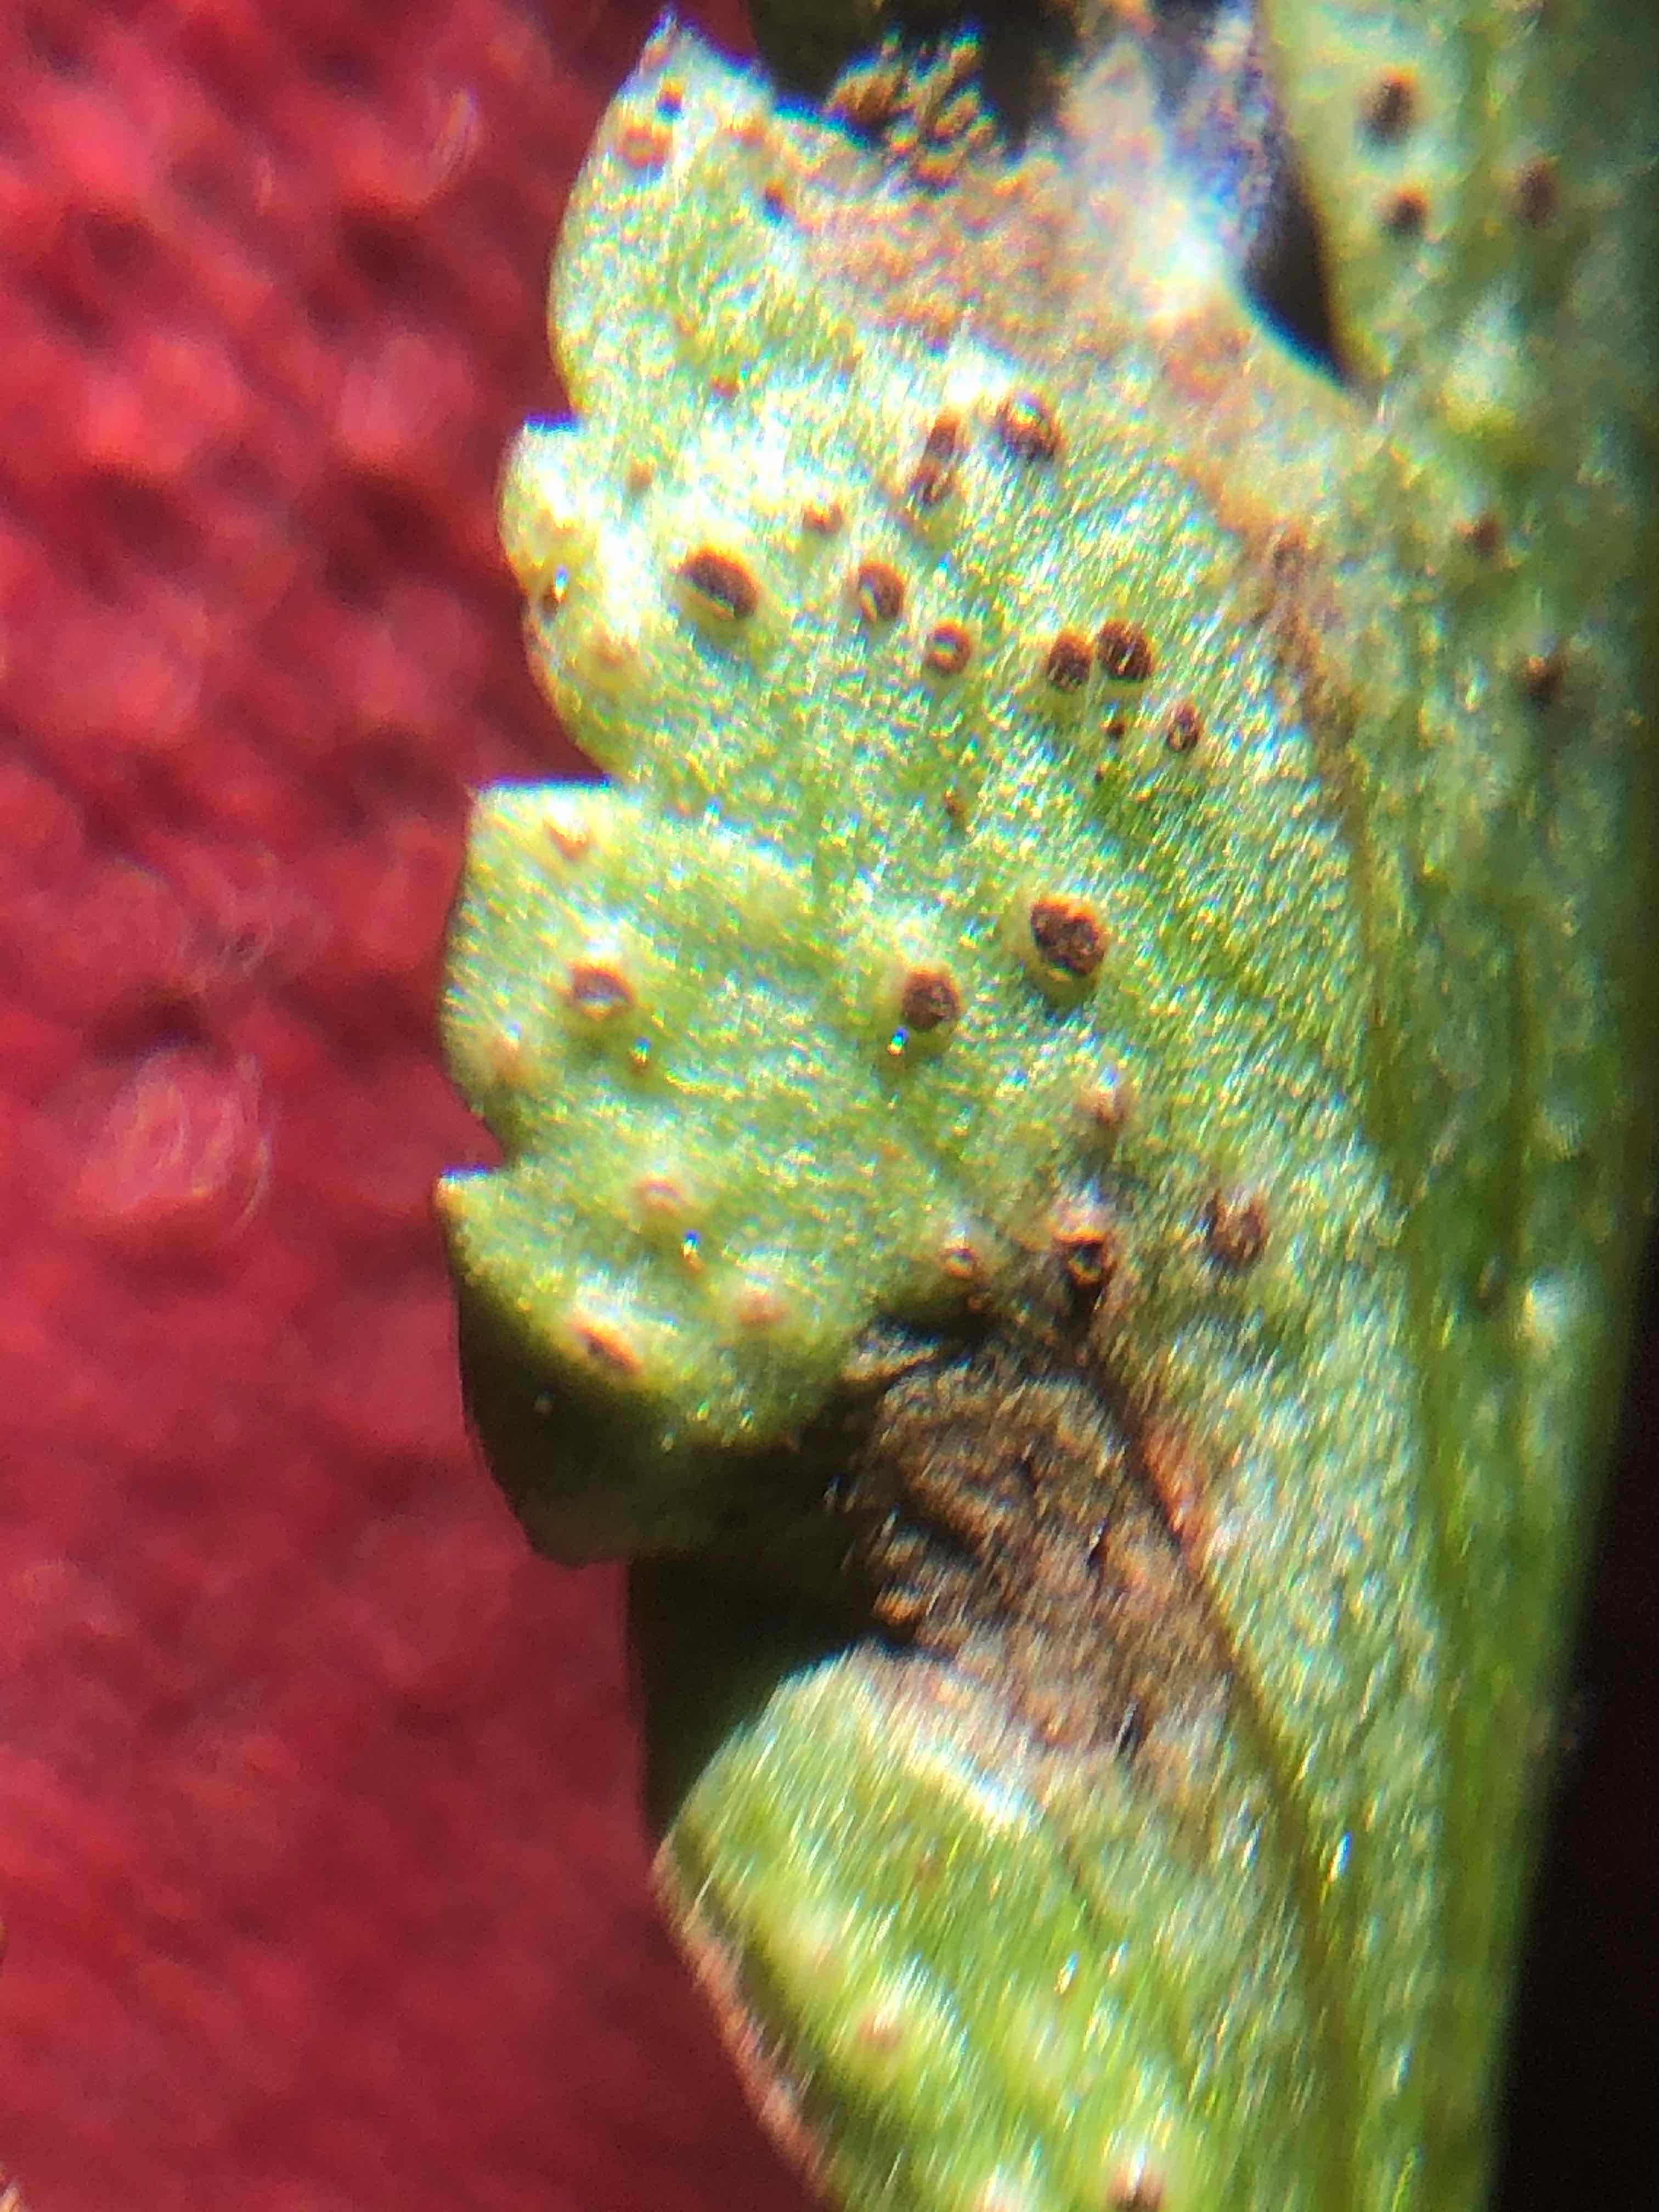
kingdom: Fungi
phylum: Basidiomycota
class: Pucciniomycetes
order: Pucciniales
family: Tranzscheliaceae
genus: Tranzschelia
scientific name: Tranzschelia anemones
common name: anemone-knæksporerust
